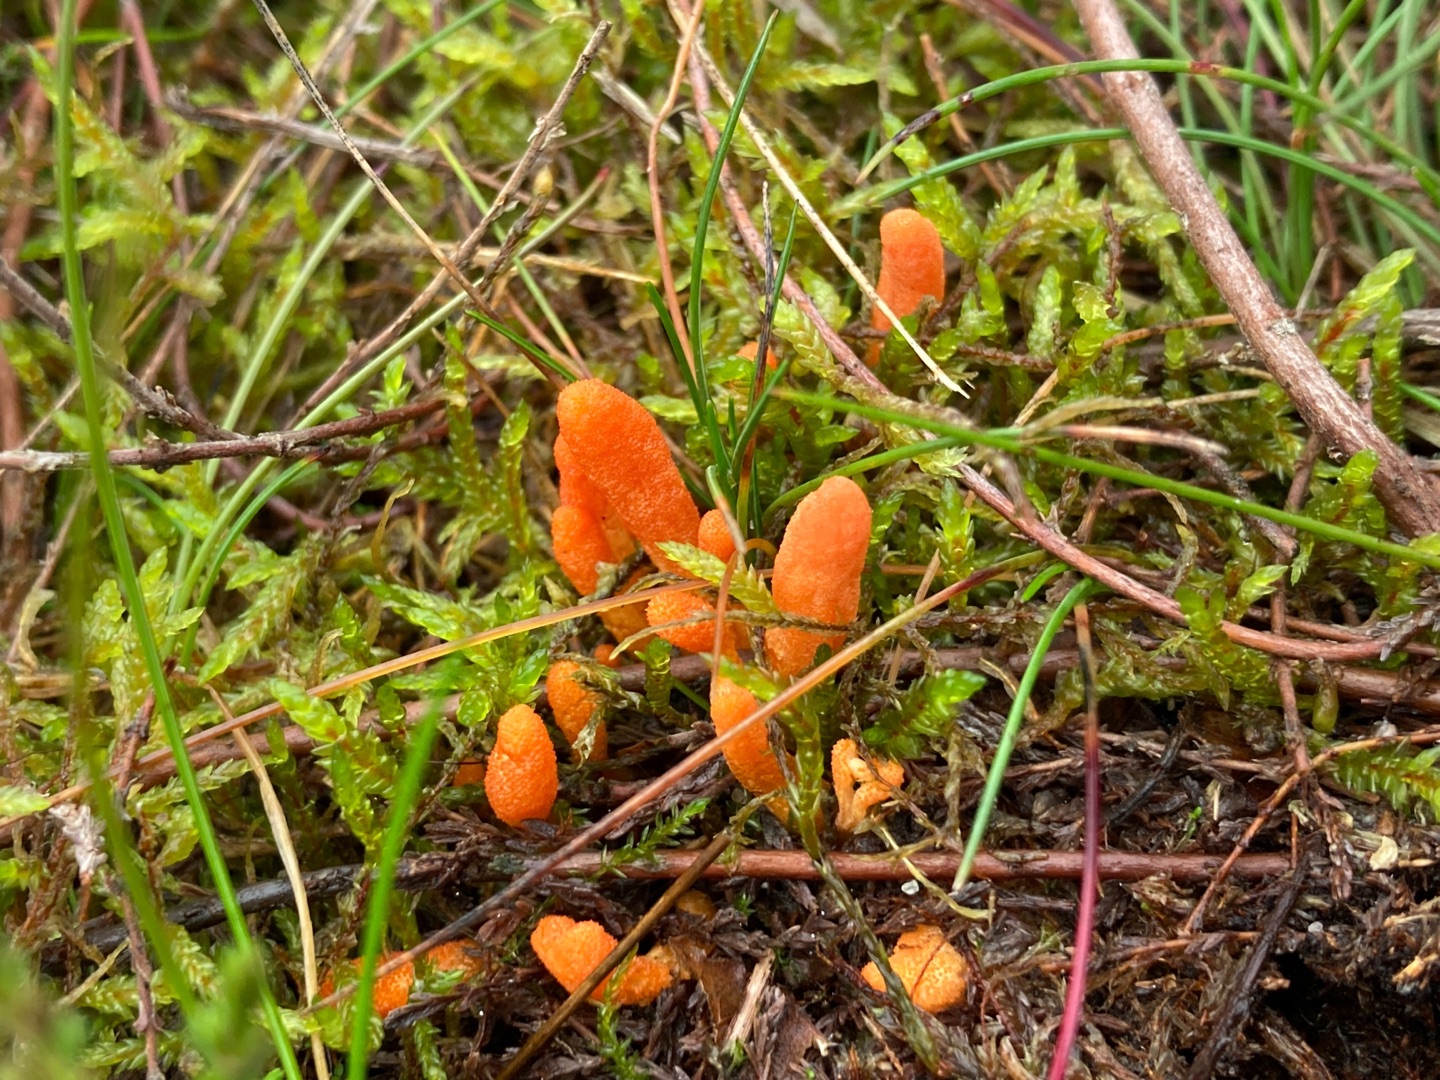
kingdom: Fungi
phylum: Ascomycota
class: Sordariomycetes
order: Hypocreales
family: Cordycipitaceae
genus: Cordyceps
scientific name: Cordyceps militaris
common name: Puppe-snyltekølle
